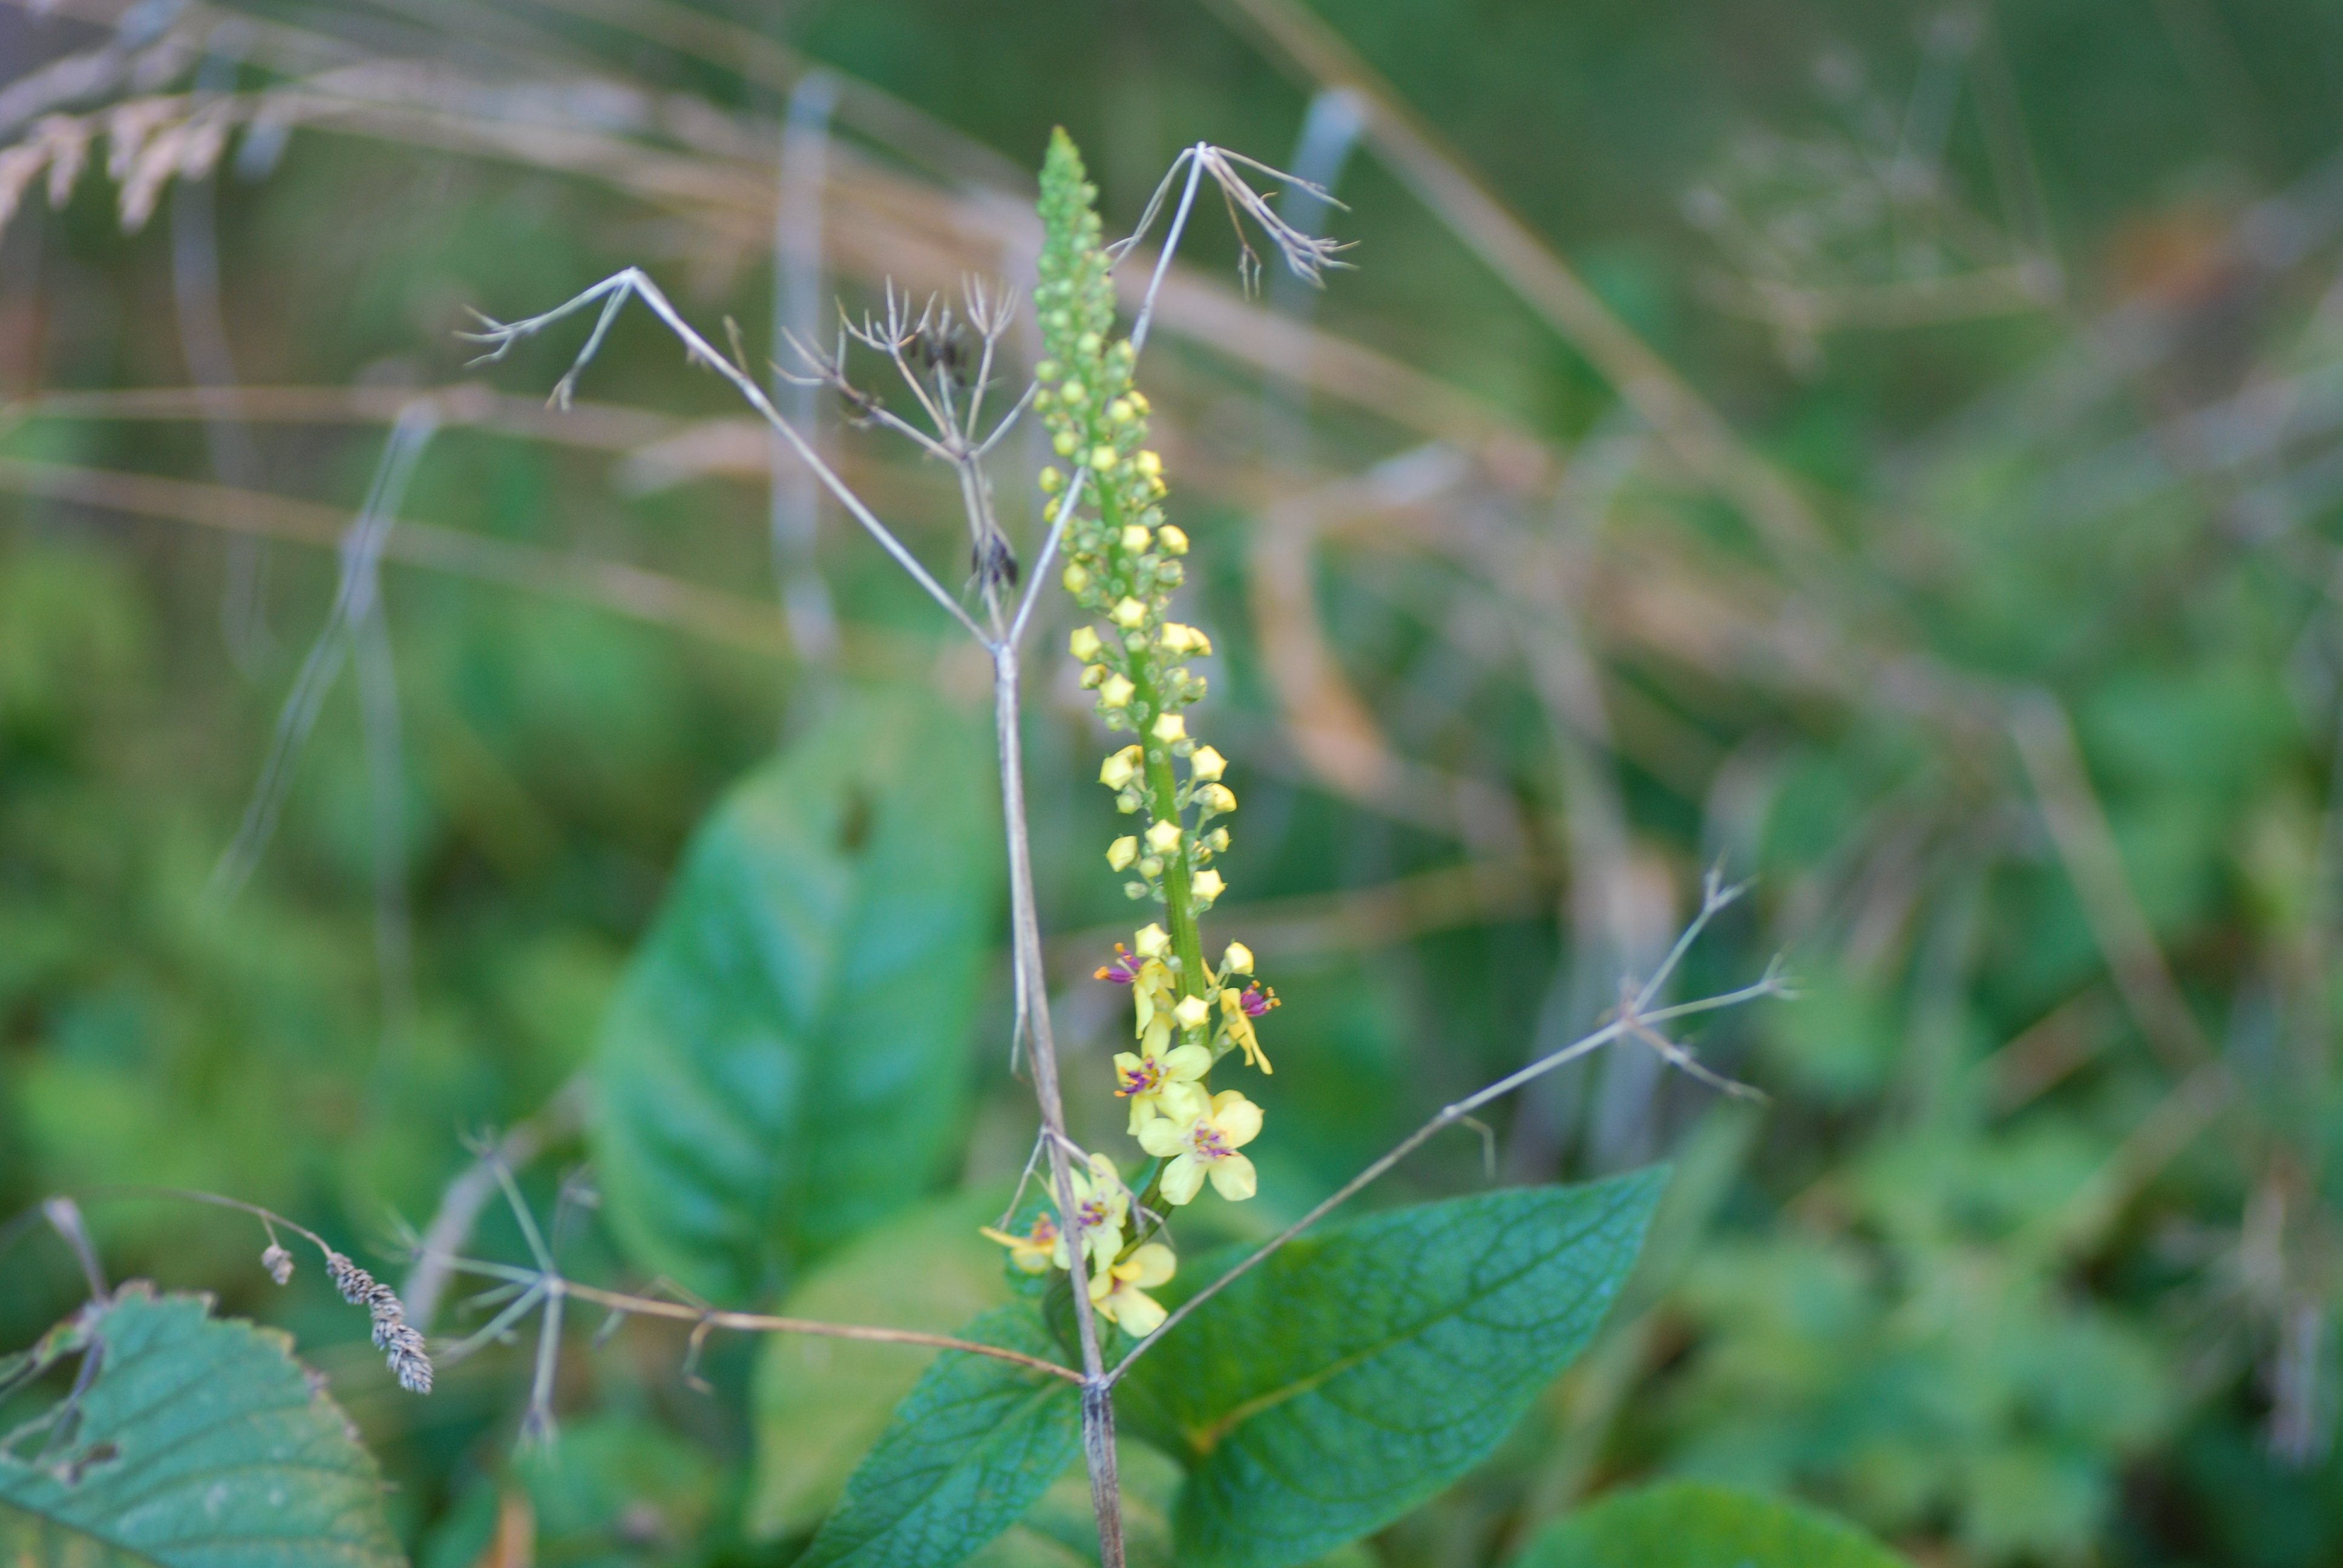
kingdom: Plantae
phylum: Tracheophyta
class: Magnoliopsida
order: Lamiales
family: Scrophulariaceae
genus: Verbascum
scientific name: Verbascum nigrum
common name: Dark mullein
